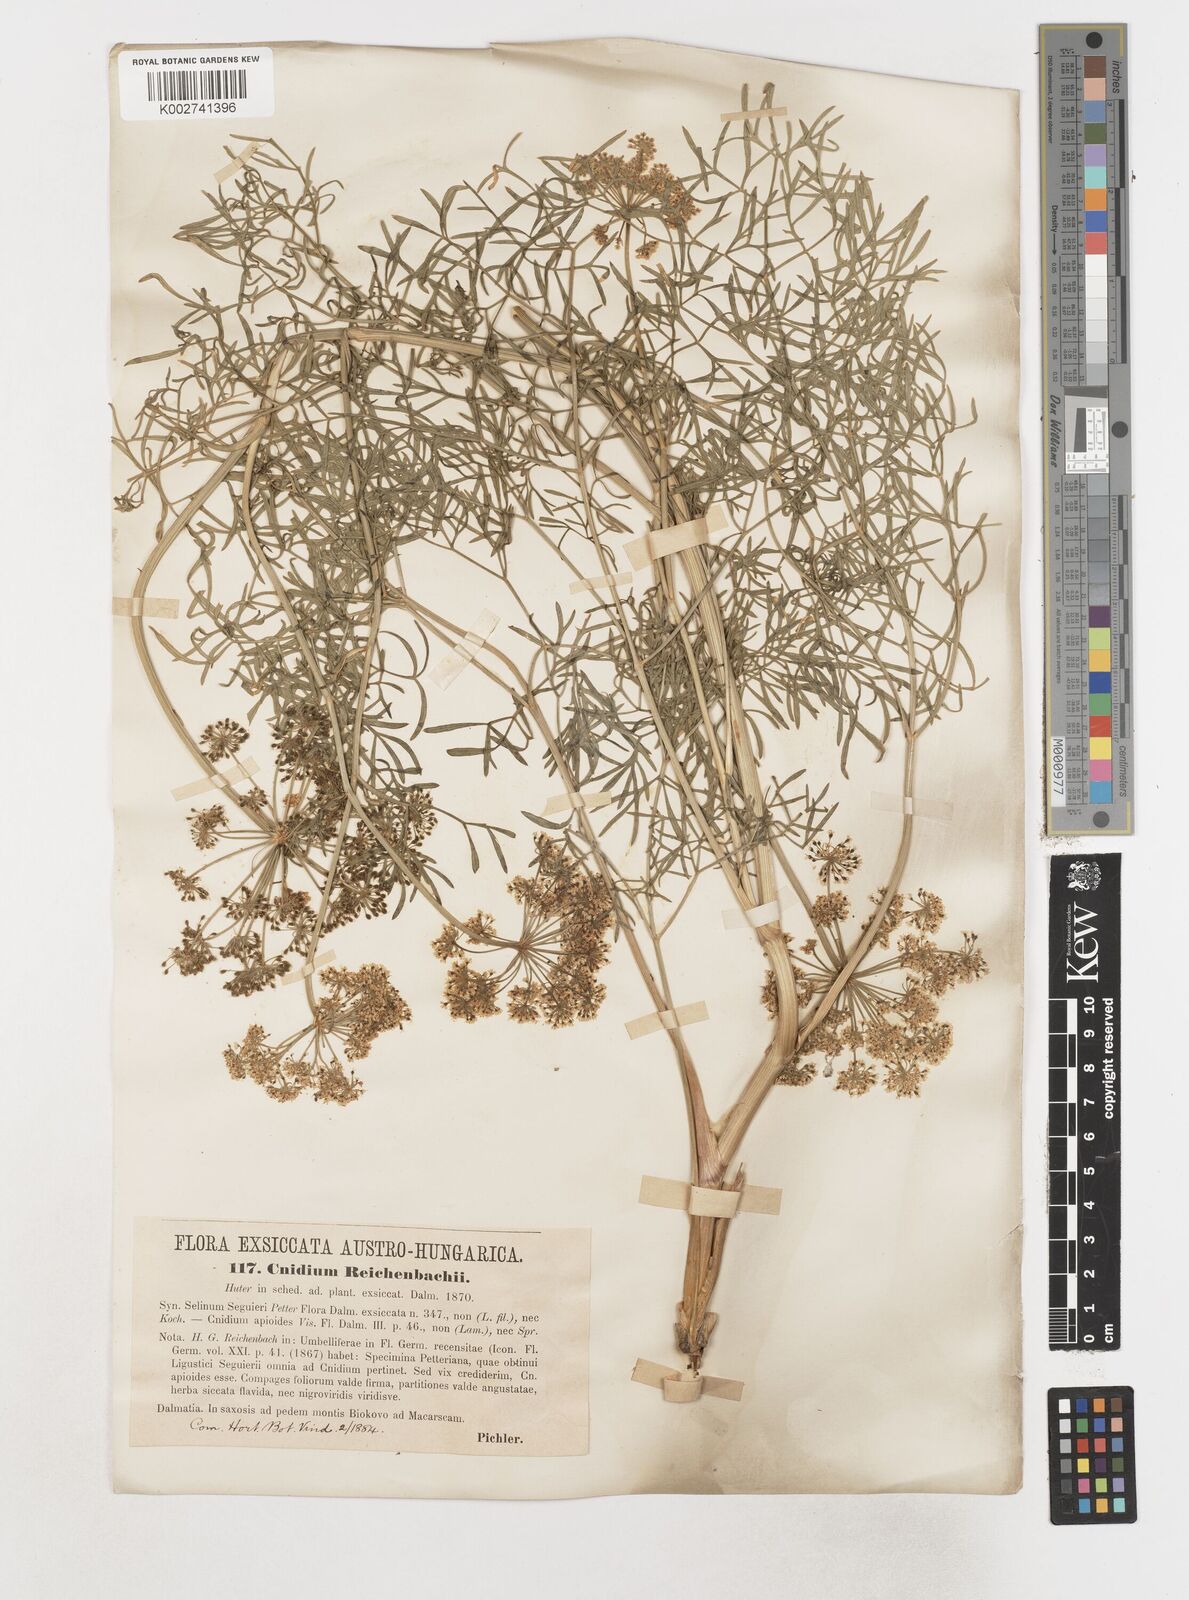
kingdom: Plantae
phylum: Tracheophyta
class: Magnoliopsida
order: Apiales
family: Apiaceae
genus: Coristospermum
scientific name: Coristospermum ferulaceum
